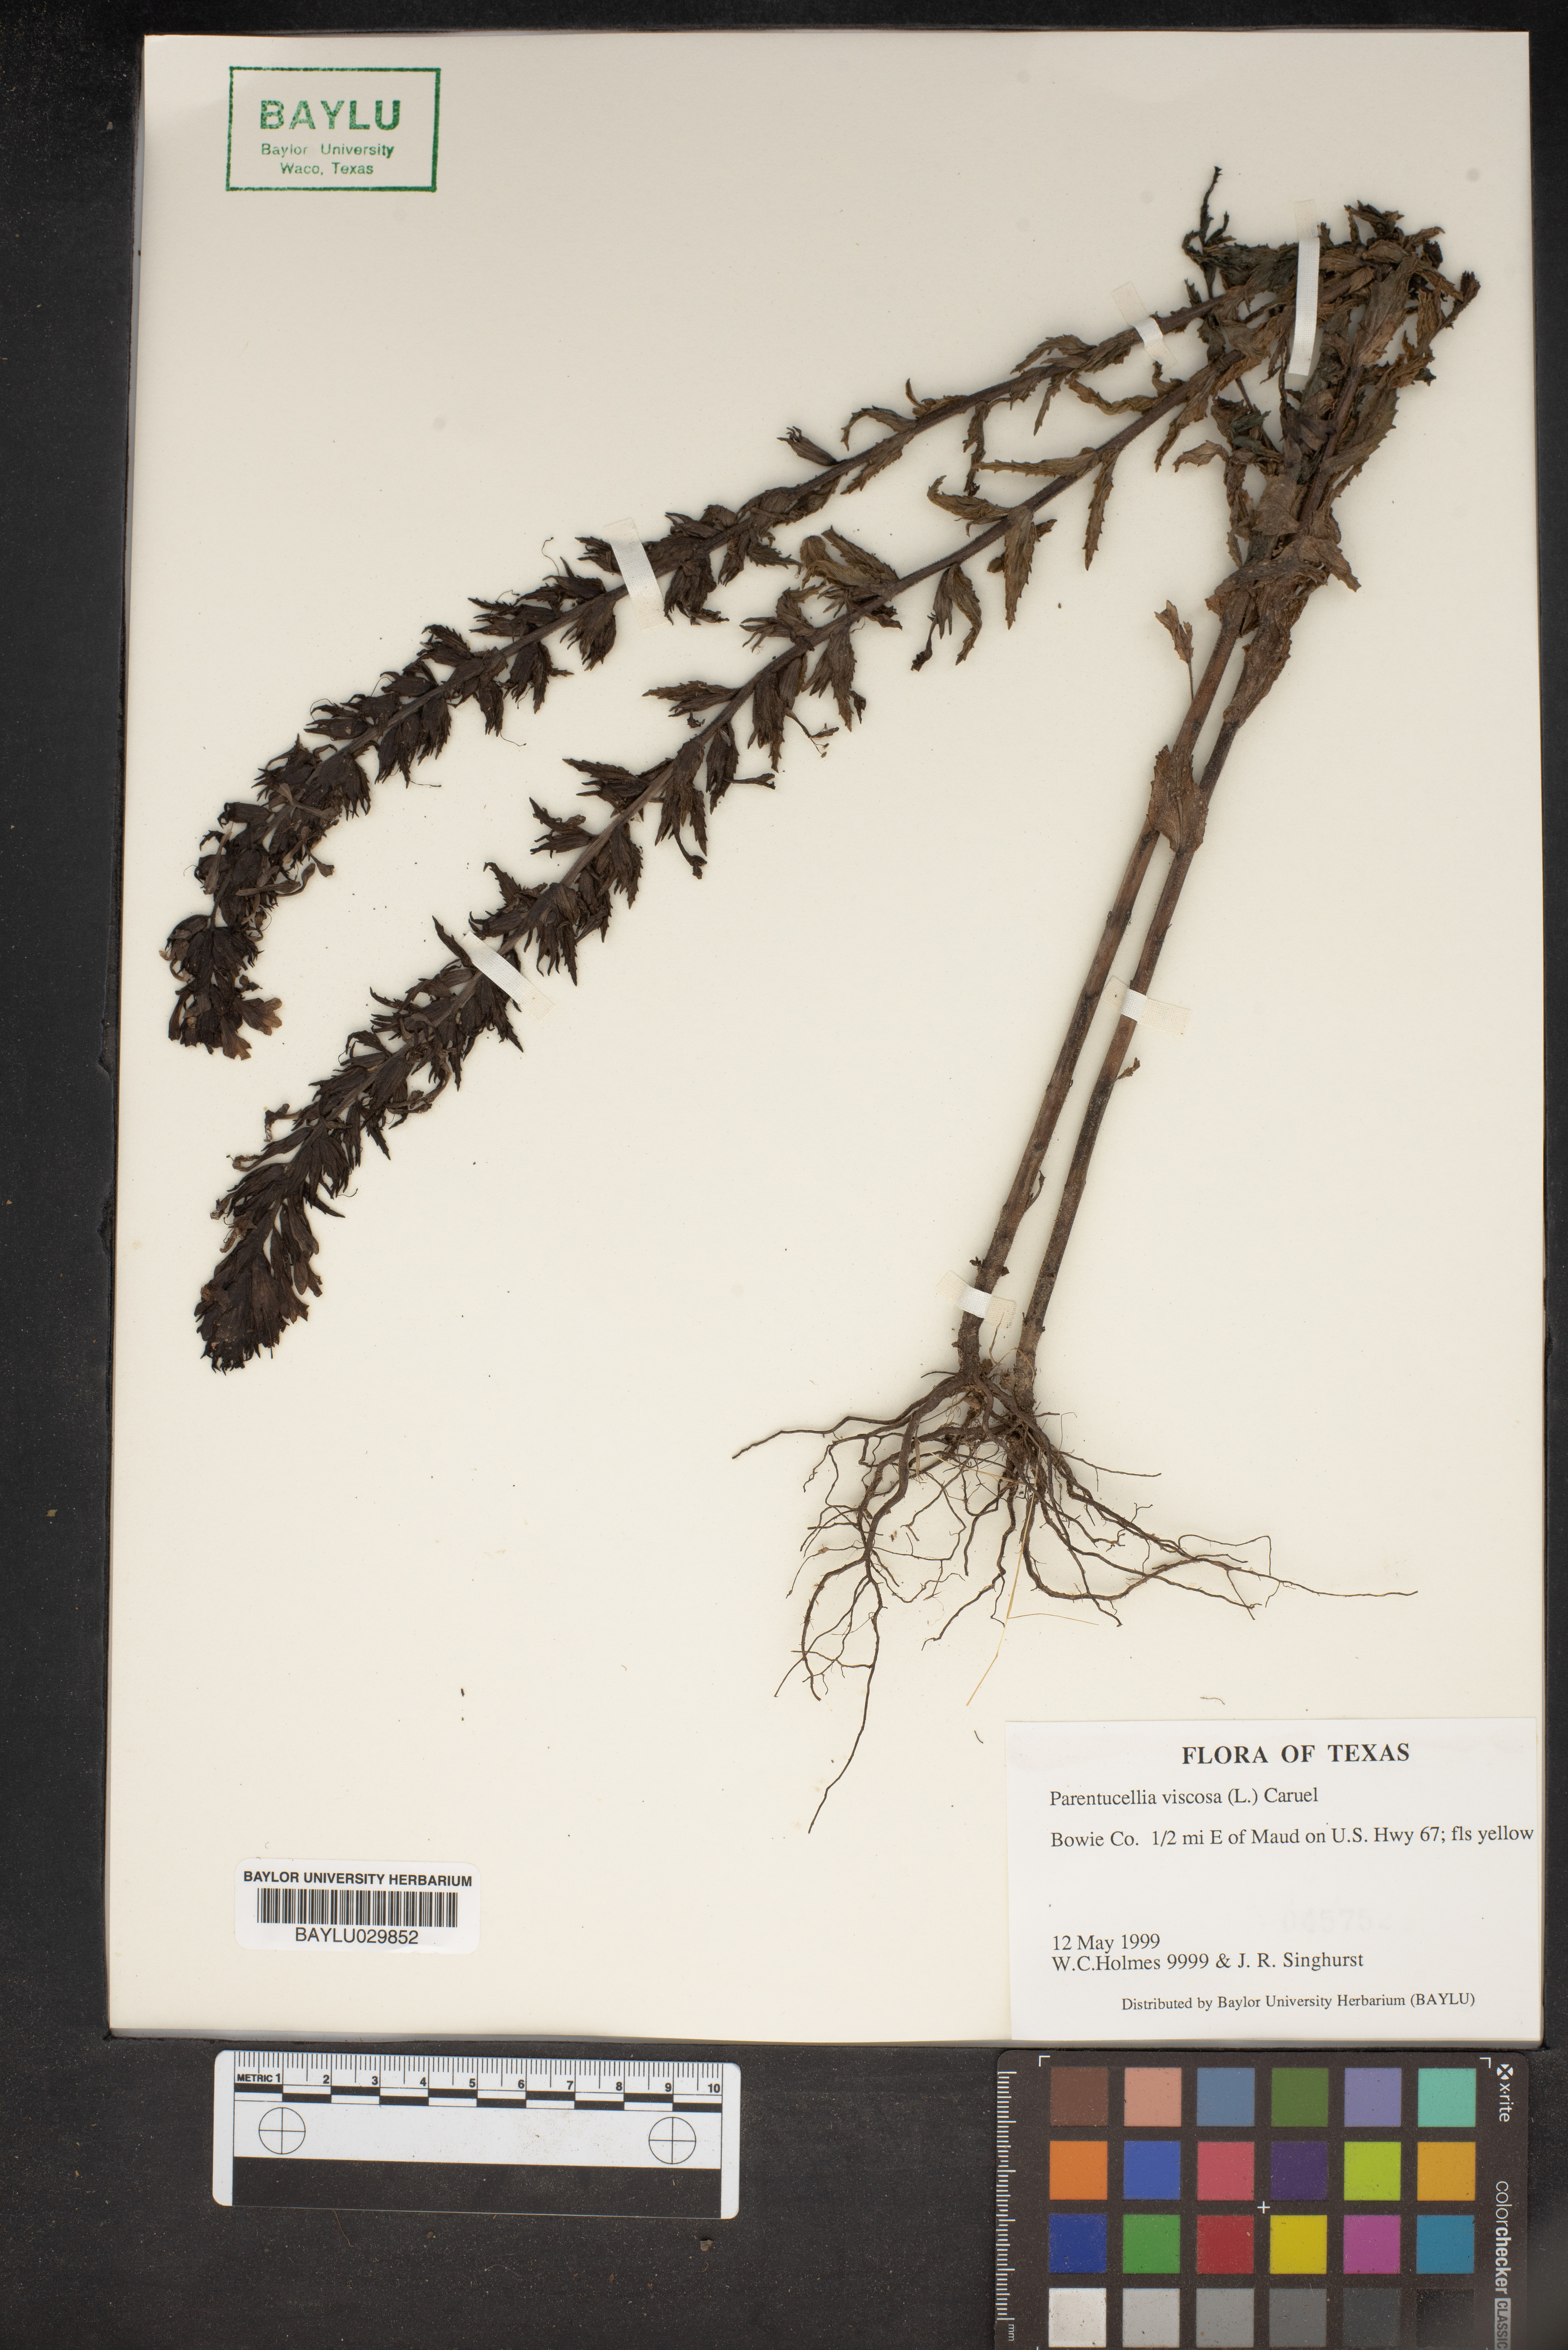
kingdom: Plantae
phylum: Tracheophyta
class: Magnoliopsida
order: Lamiales
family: Orobanchaceae
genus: Bellardia
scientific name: Bellardia viscosa
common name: Sticky parentucellia
